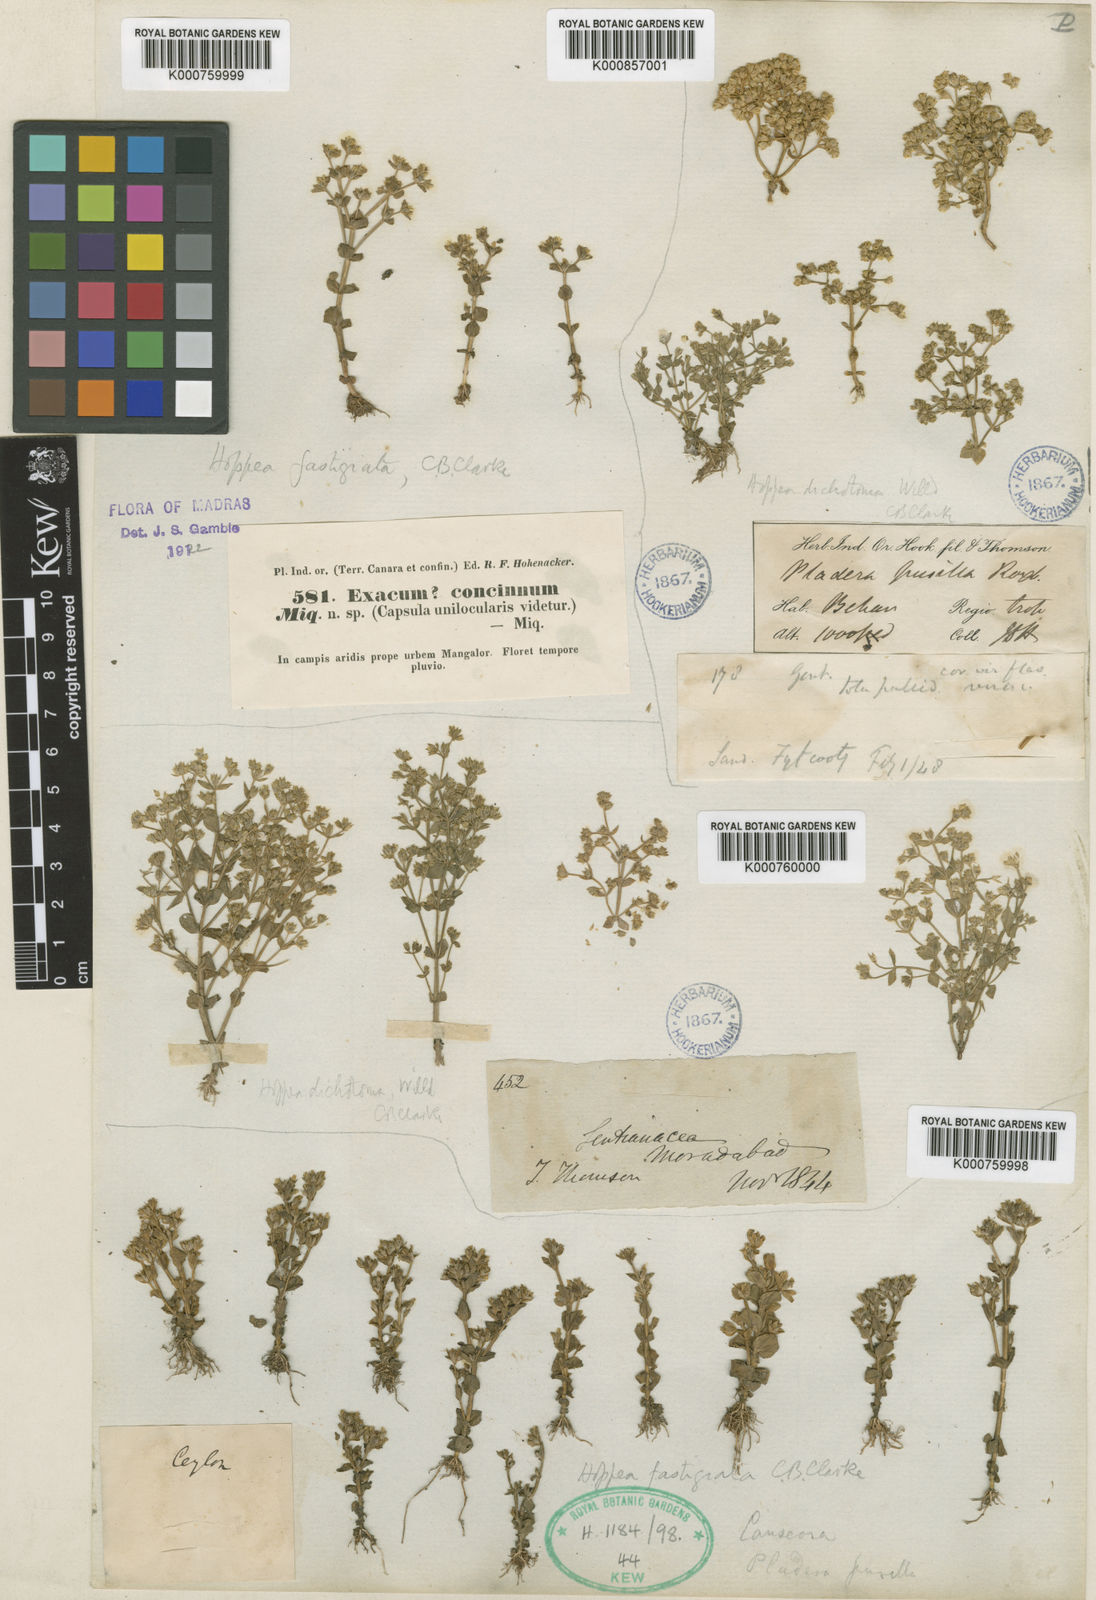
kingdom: Plantae
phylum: Tracheophyta
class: Magnoliopsida
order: Gentianales
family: Gentianaceae
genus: Hoppea
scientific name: Hoppea fastigiata
